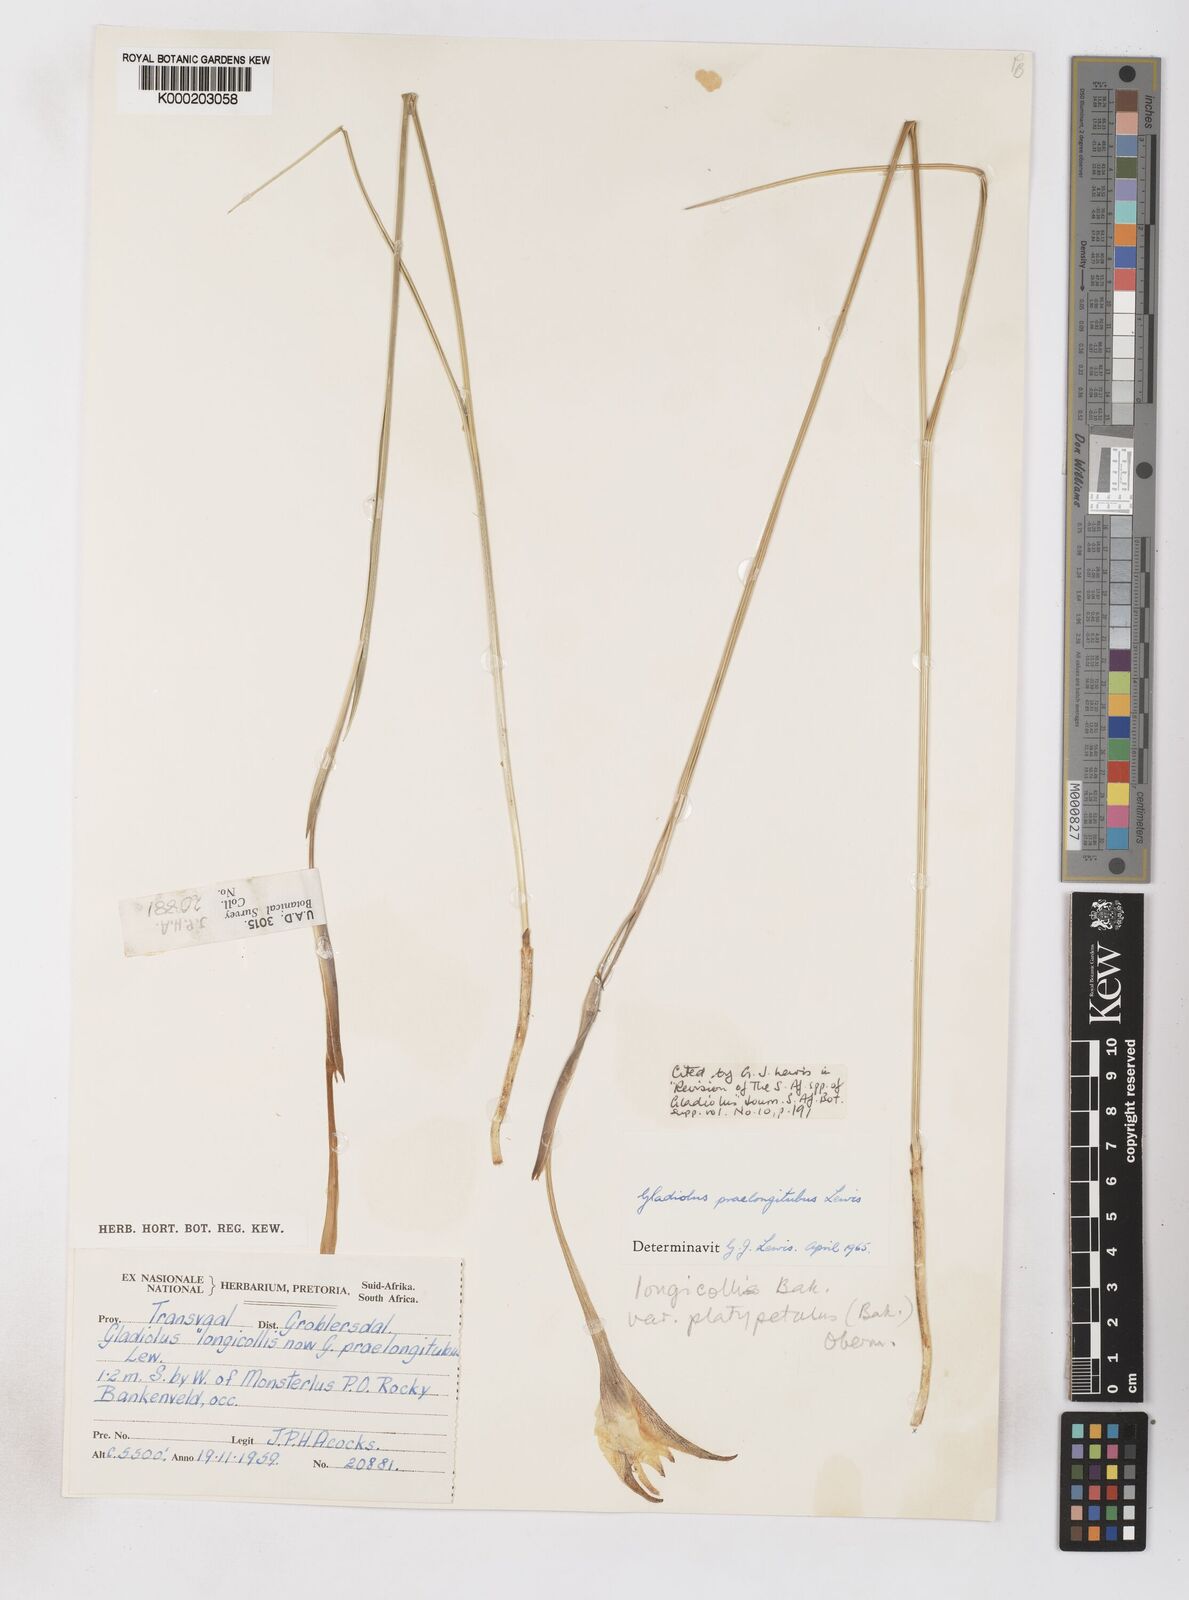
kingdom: Plantae
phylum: Tracheophyta
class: Liliopsida
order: Asparagales
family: Iridaceae
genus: Gladiolus
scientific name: Gladiolus longicollis
